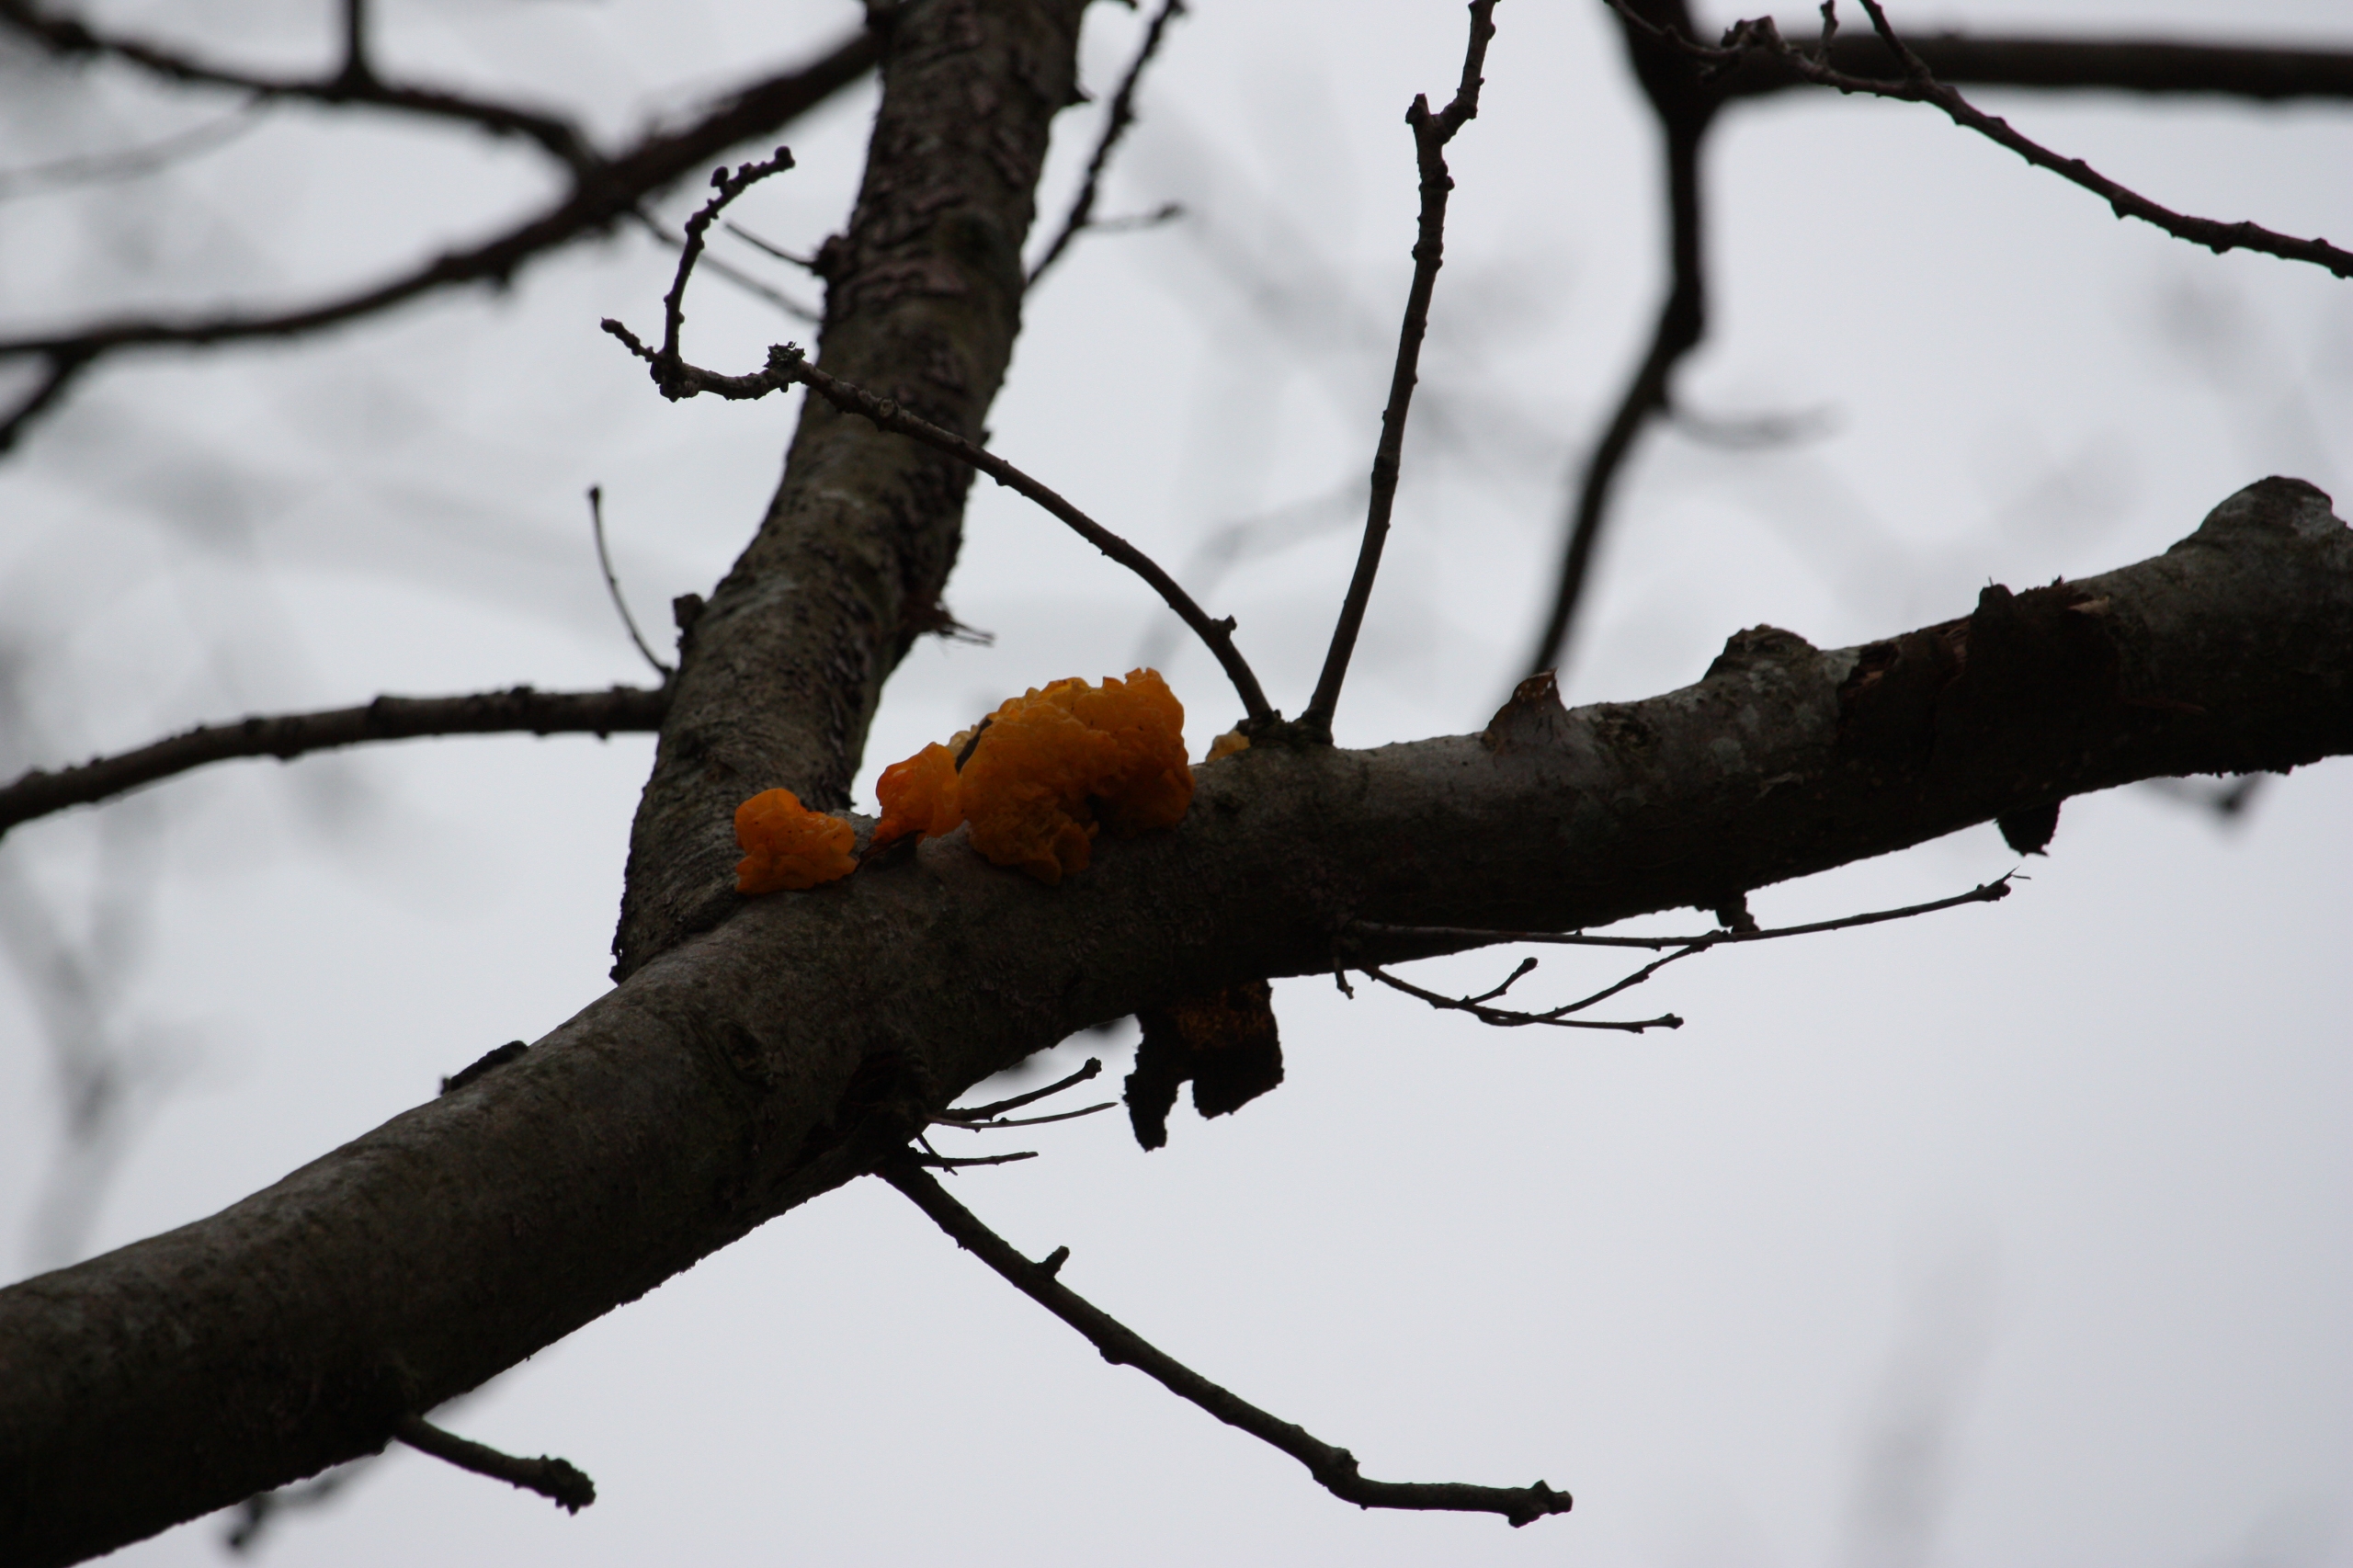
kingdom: Fungi
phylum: Basidiomycota
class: Tremellomycetes
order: Tremellales
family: Tremellaceae
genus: Tremella
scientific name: Tremella mesenterica
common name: Gul bævresvamp
